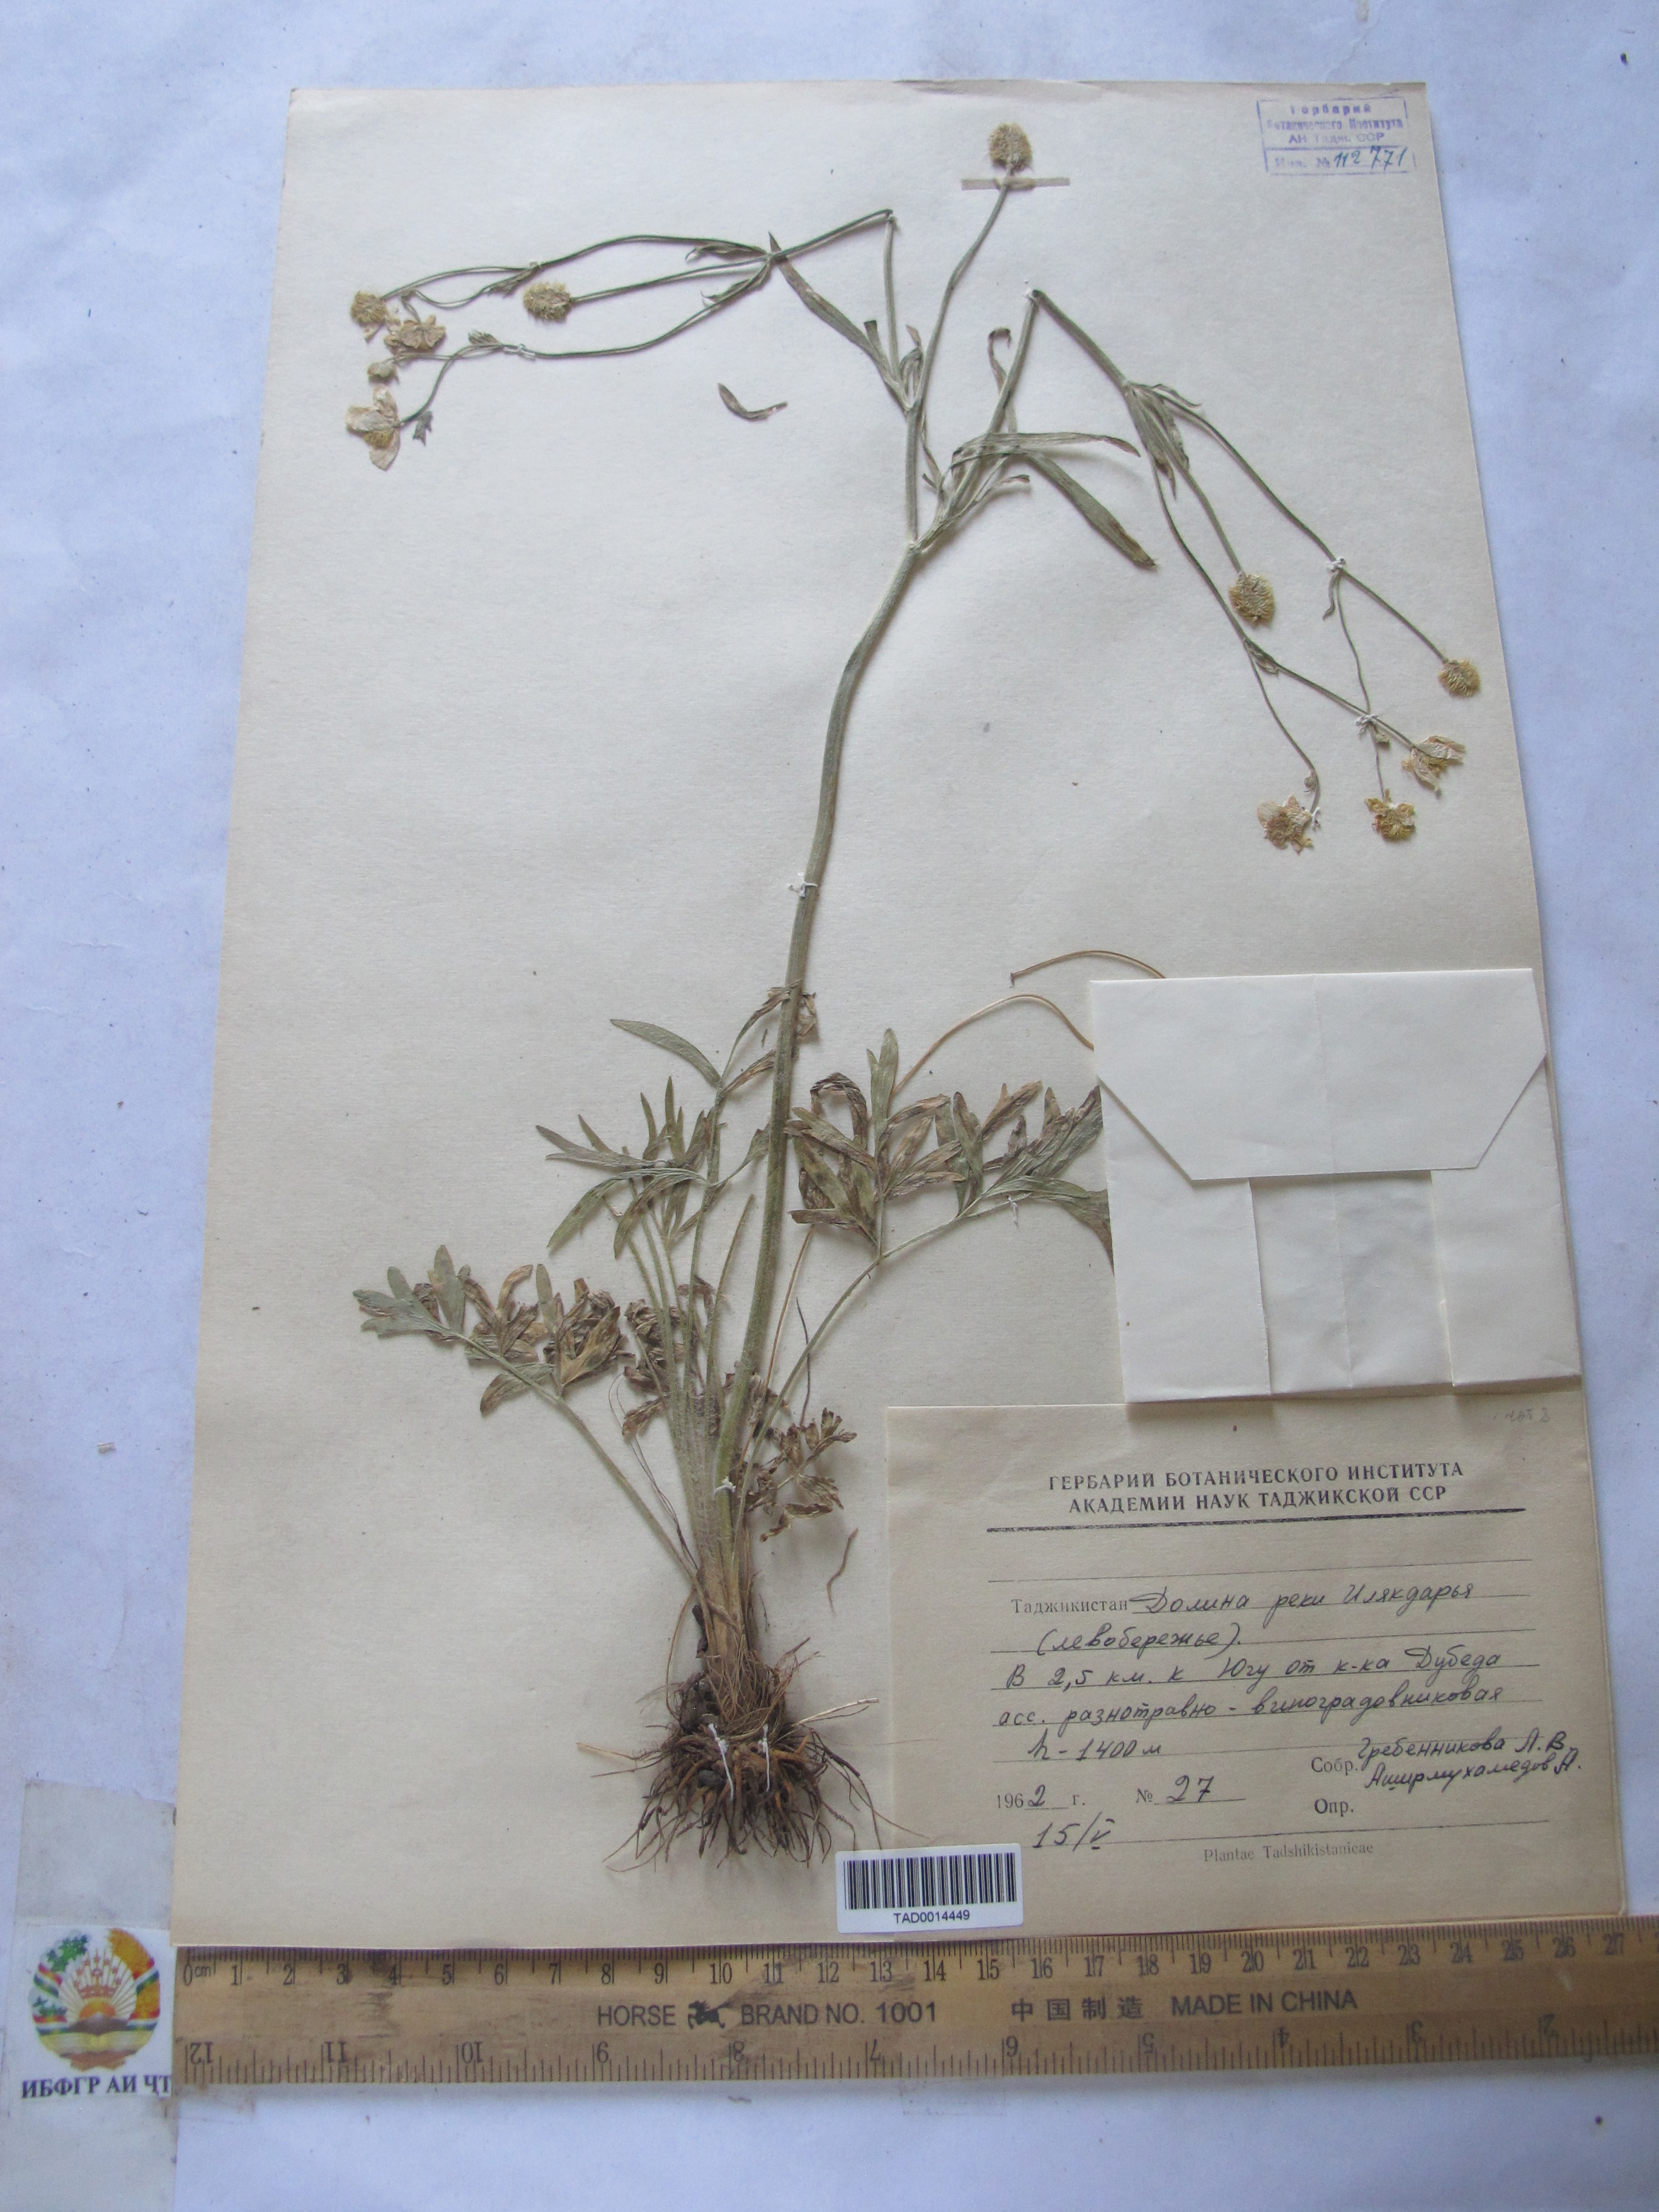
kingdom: Plantae
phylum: Tracheophyta
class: Magnoliopsida
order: Ranunculales
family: Ranunculaceae
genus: Ranunculus
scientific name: Ranunculus leptorrhynchus
